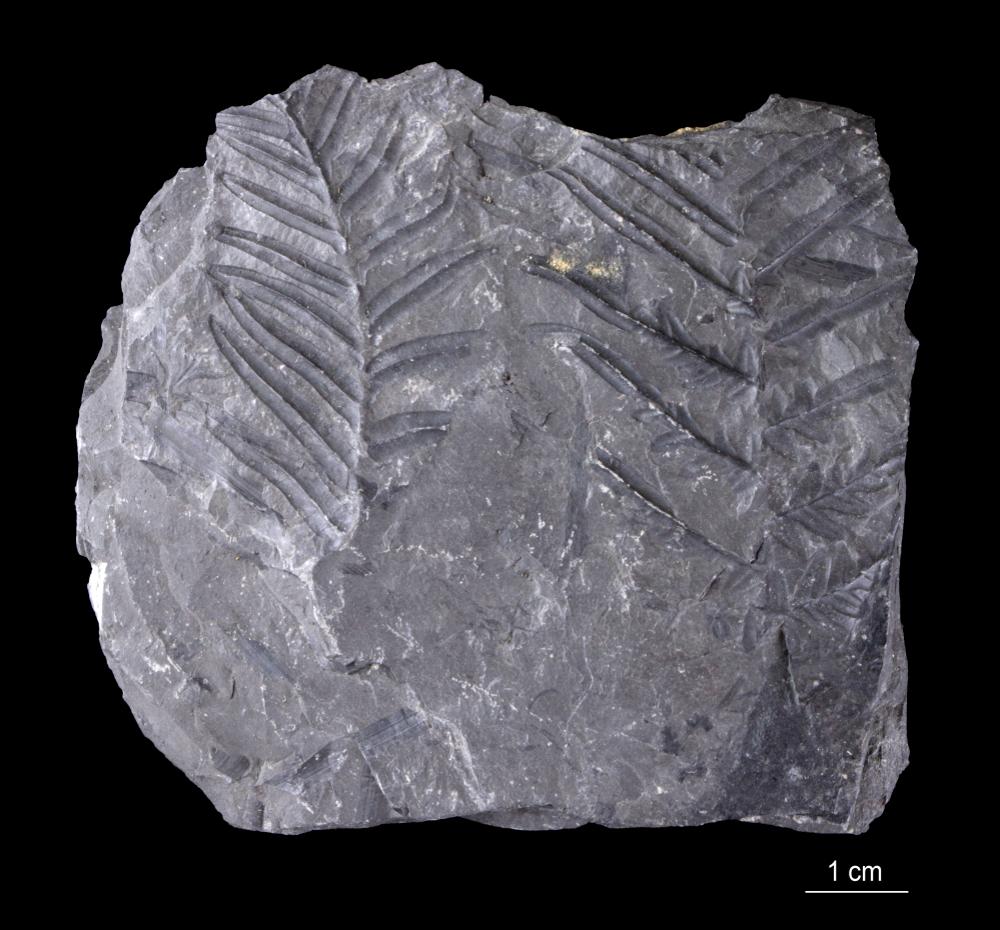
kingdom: Plantae
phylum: Tracheophyta
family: Callistophytaceae
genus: Mariopteris
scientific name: Mariopteris
